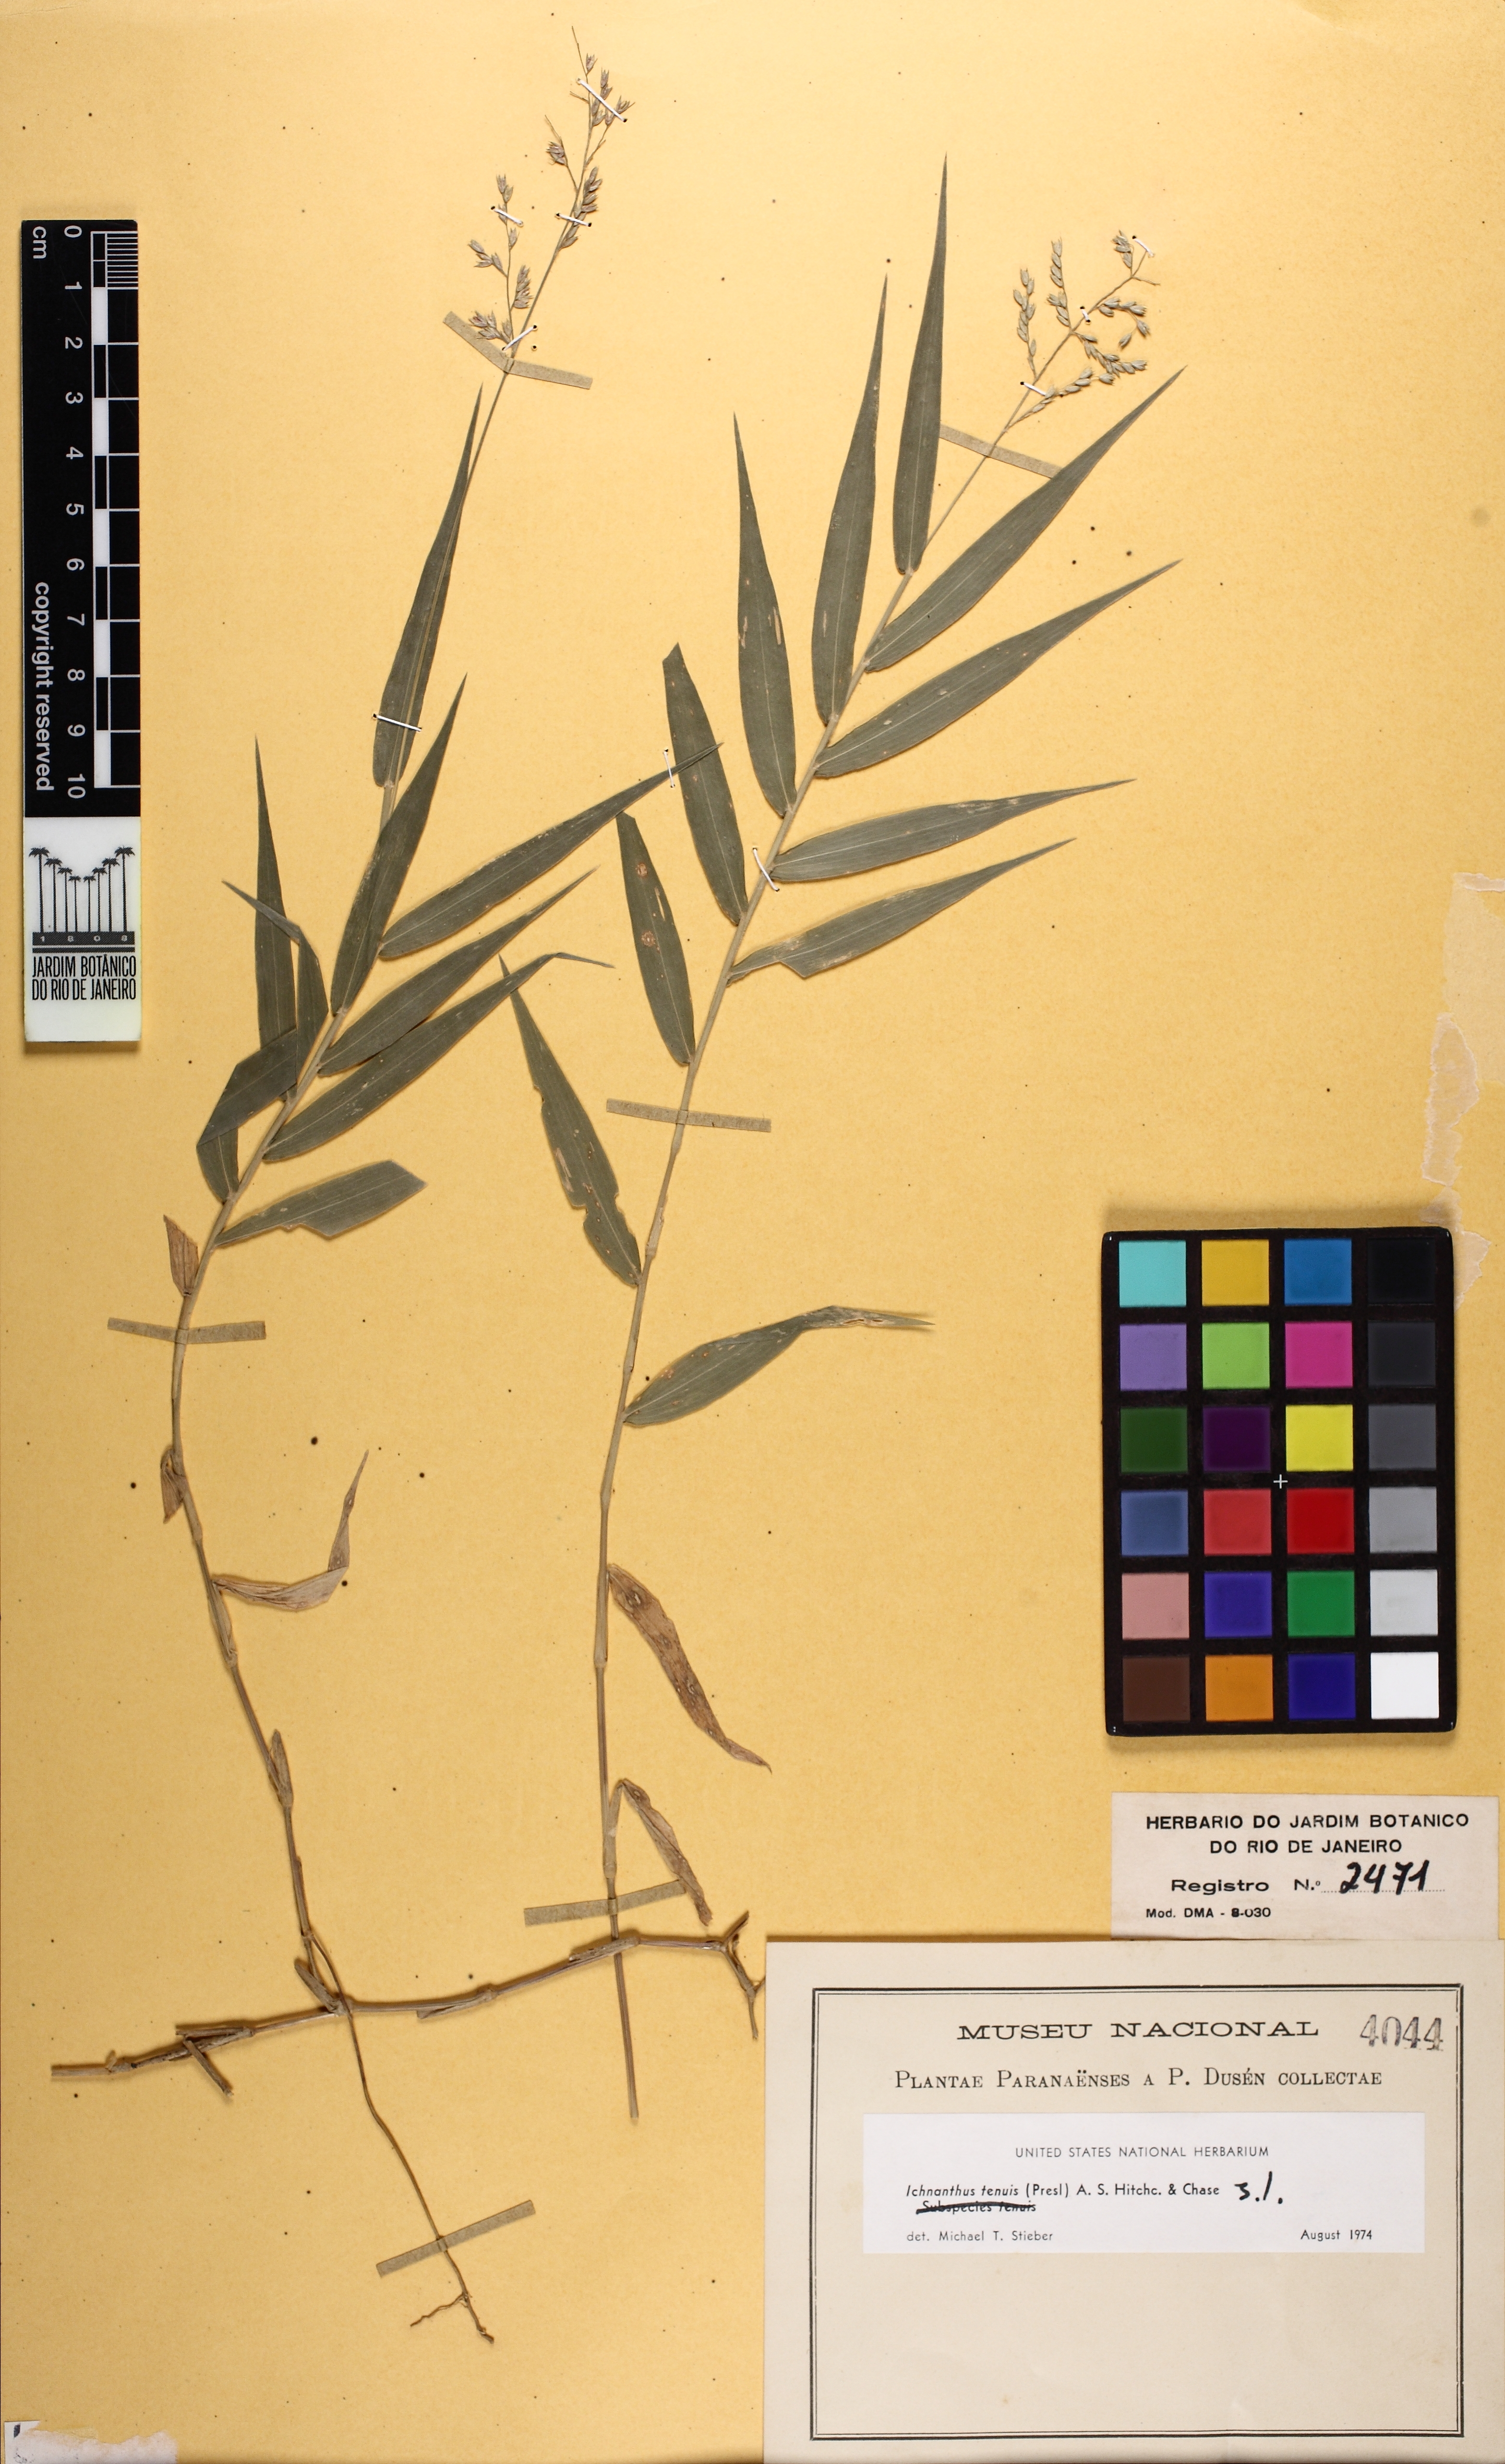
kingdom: Plantae
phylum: Tracheophyta
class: Liliopsida
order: Poales
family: Poaceae
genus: Ichnanthus
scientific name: Ichnanthus ruprechtii
